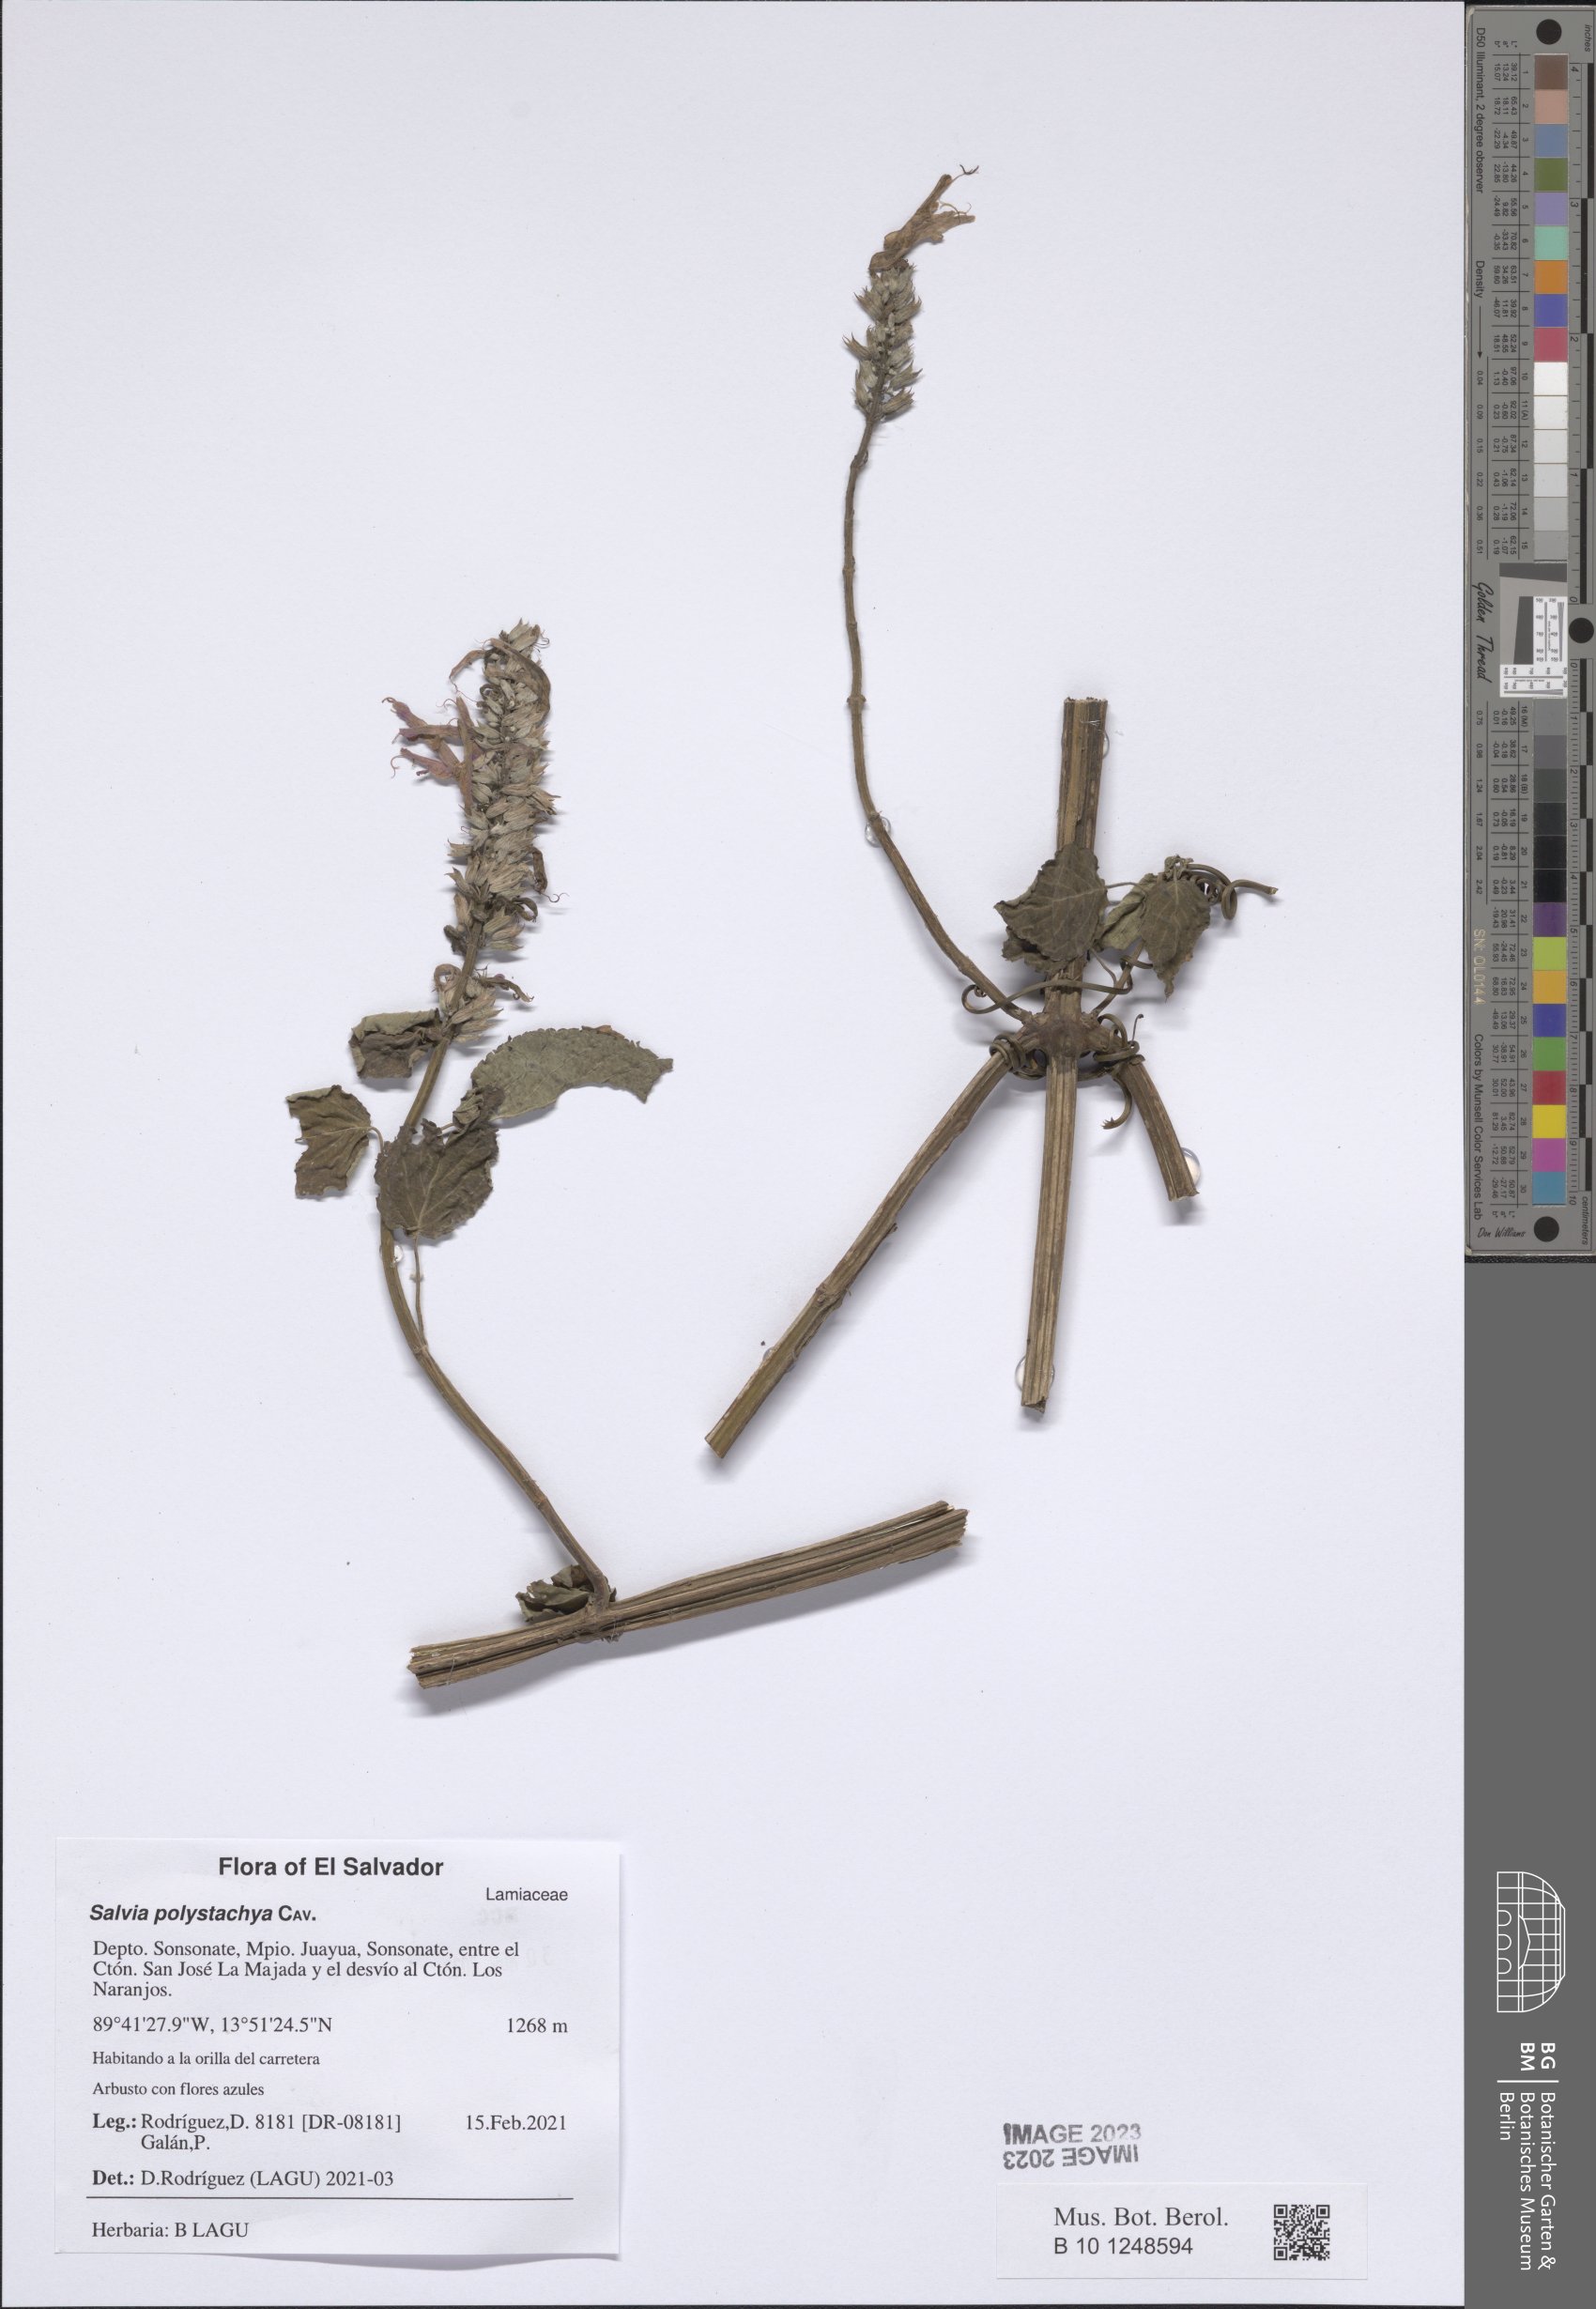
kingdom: Plantae
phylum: Tracheophyta
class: Magnoliopsida
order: Lamiales
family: Lamiaceae
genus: Salvia
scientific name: Salvia polystachia
